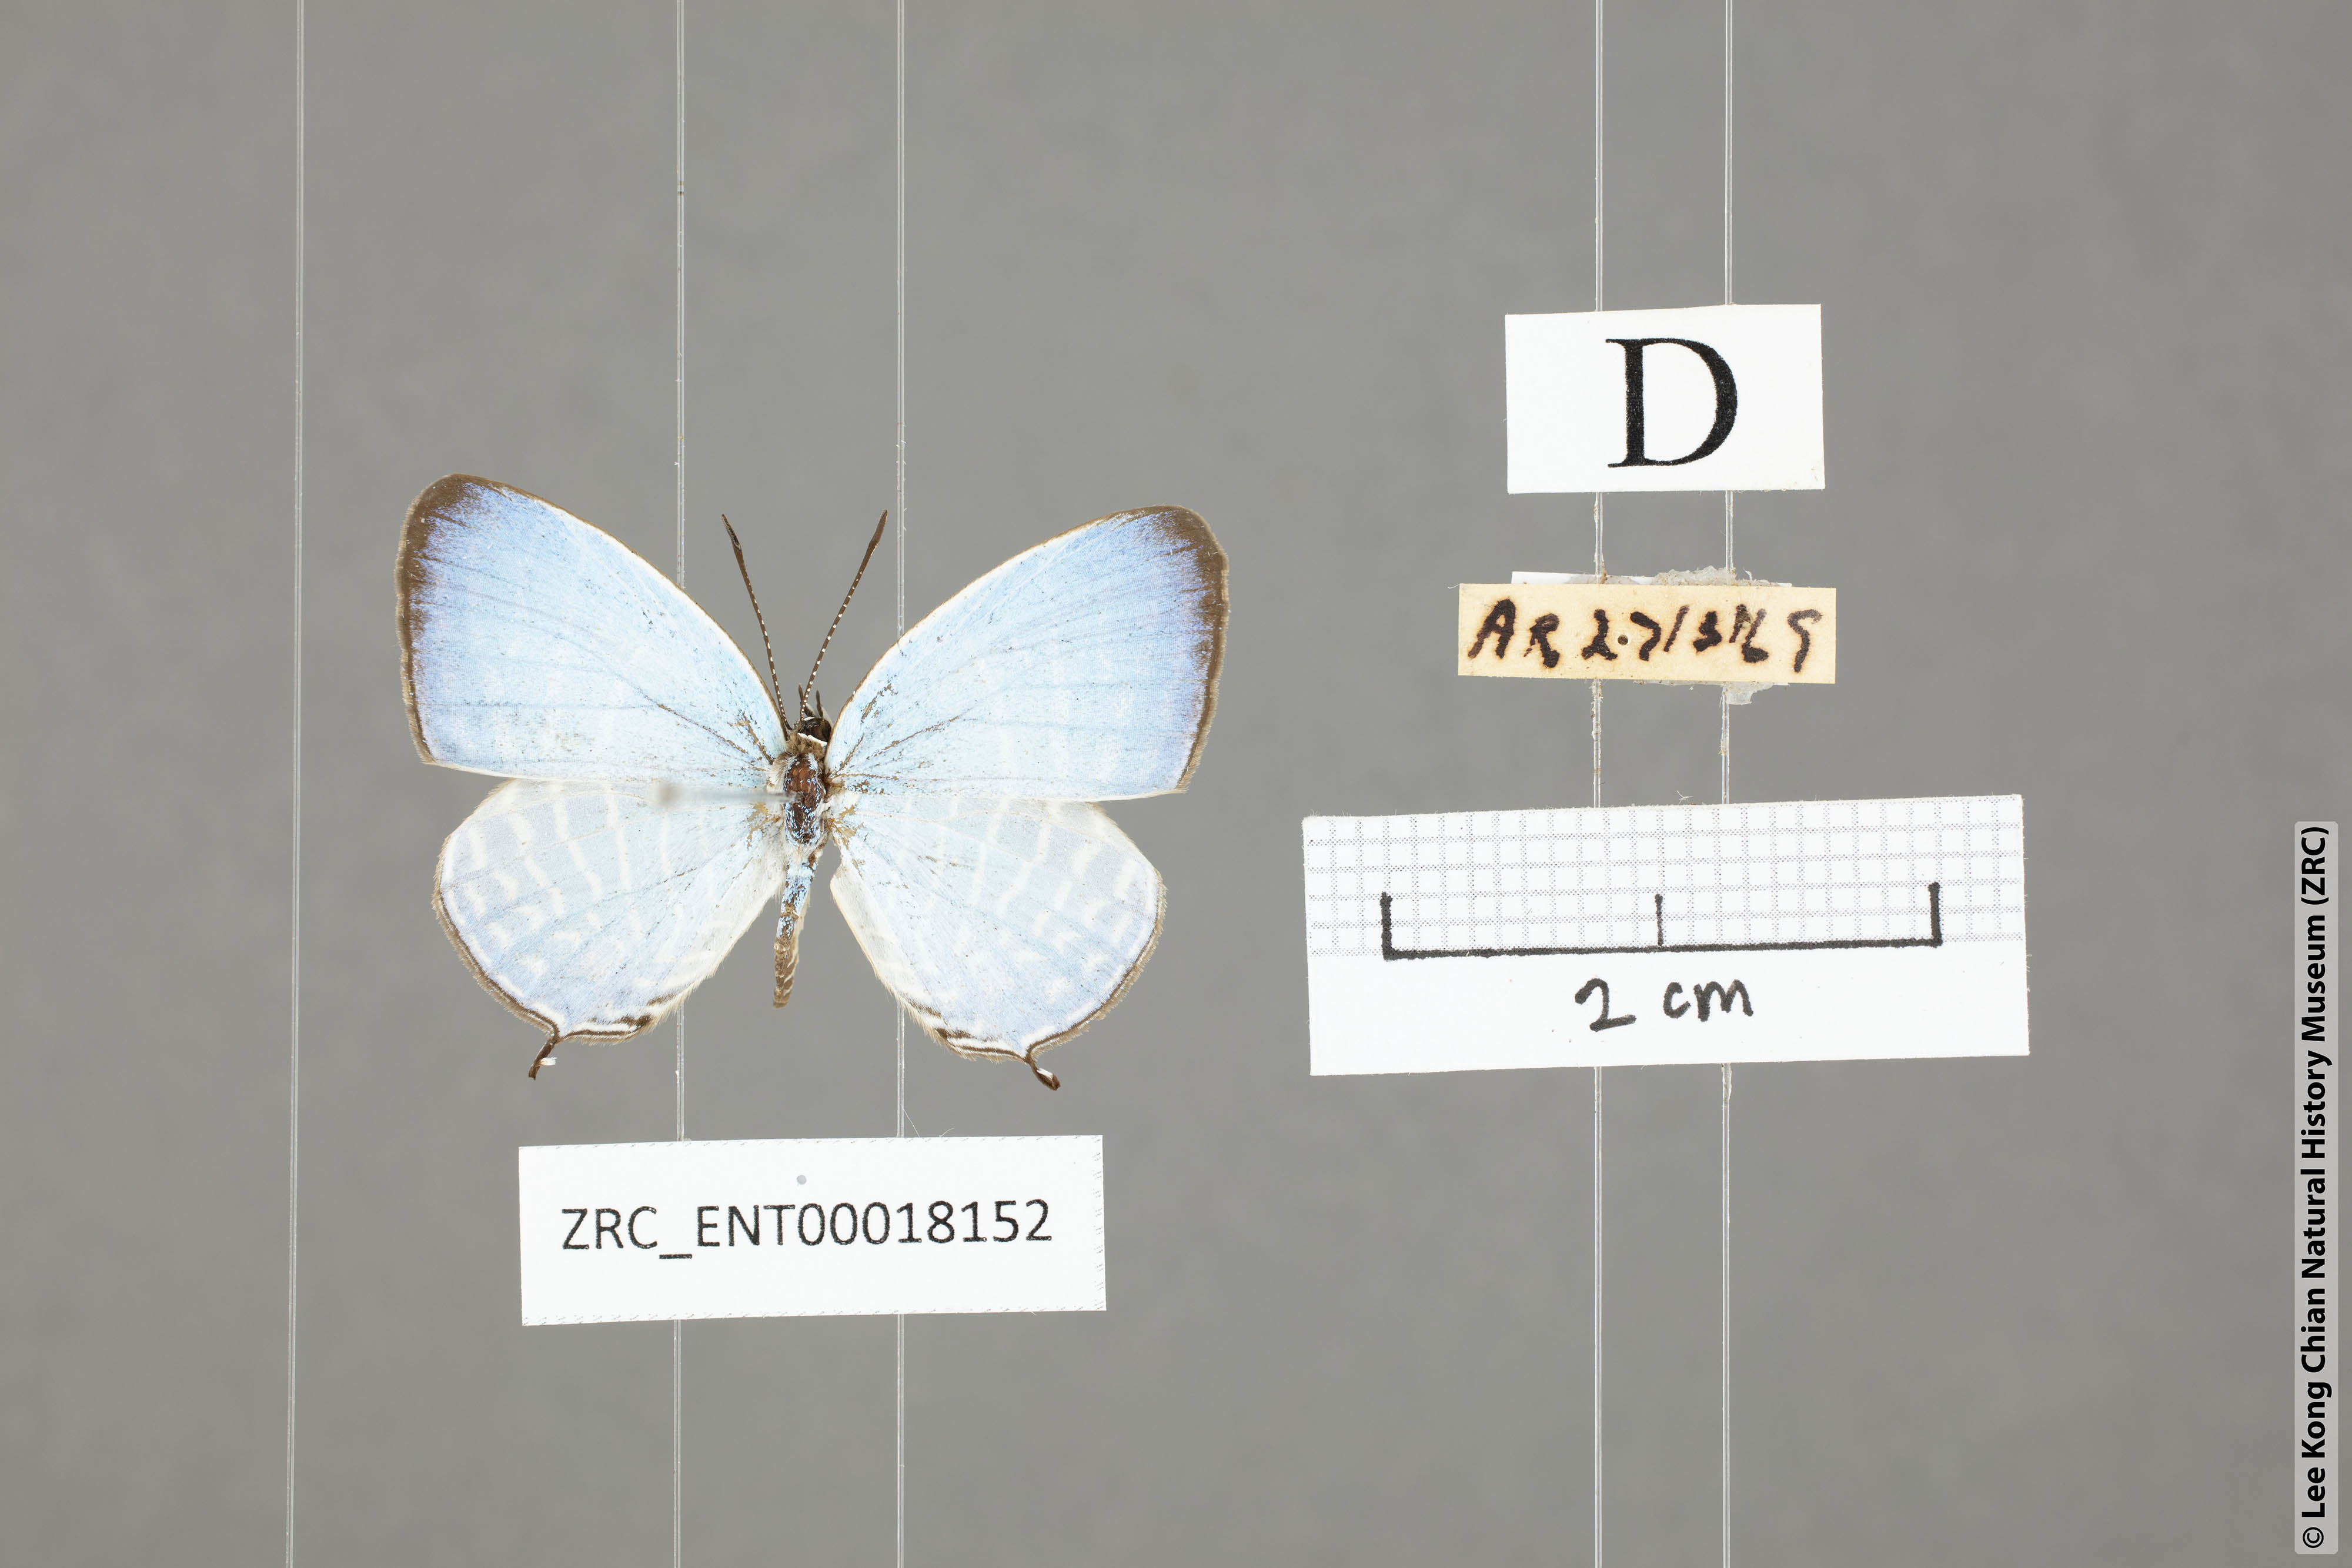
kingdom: Animalia
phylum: Arthropoda
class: Insecta
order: Lepidoptera
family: Lycaenidae
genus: Jamides
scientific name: Jamides parasaturata
